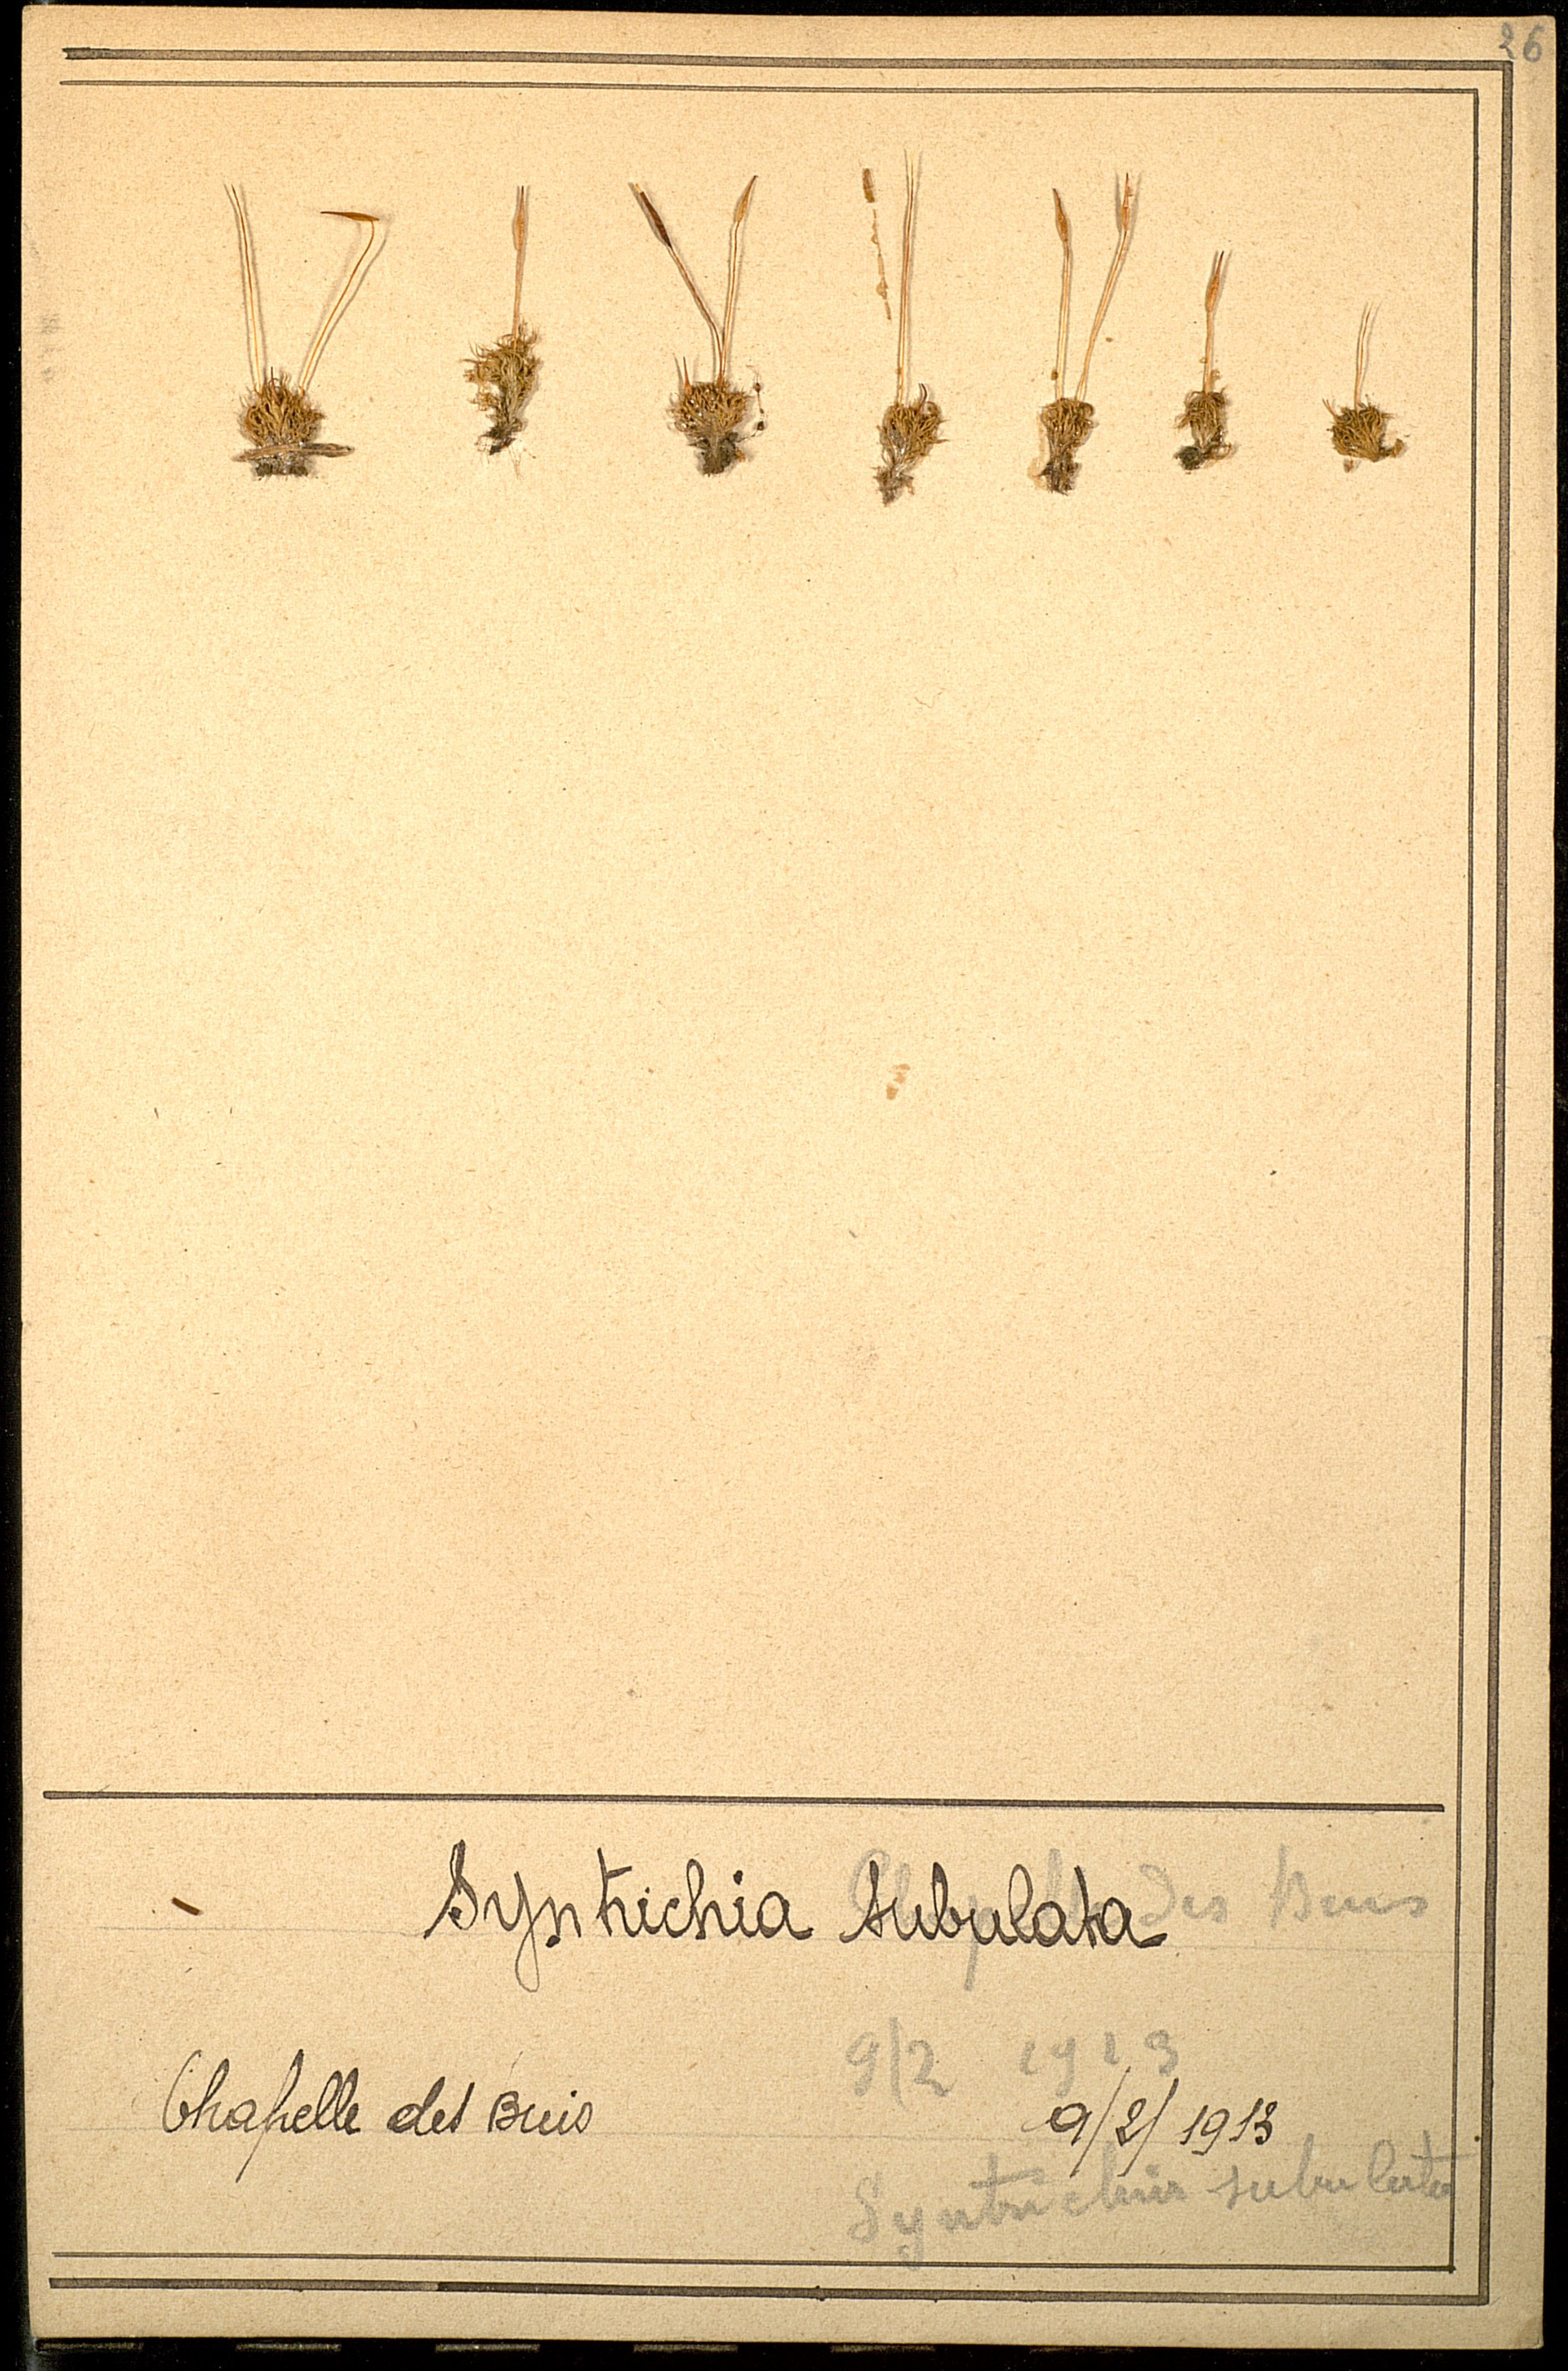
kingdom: Plantae
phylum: Bryophyta
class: Bryopsida
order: Pottiales
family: Pottiaceae
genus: Tortula
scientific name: Tortula subulata
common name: Upright screw-moss
